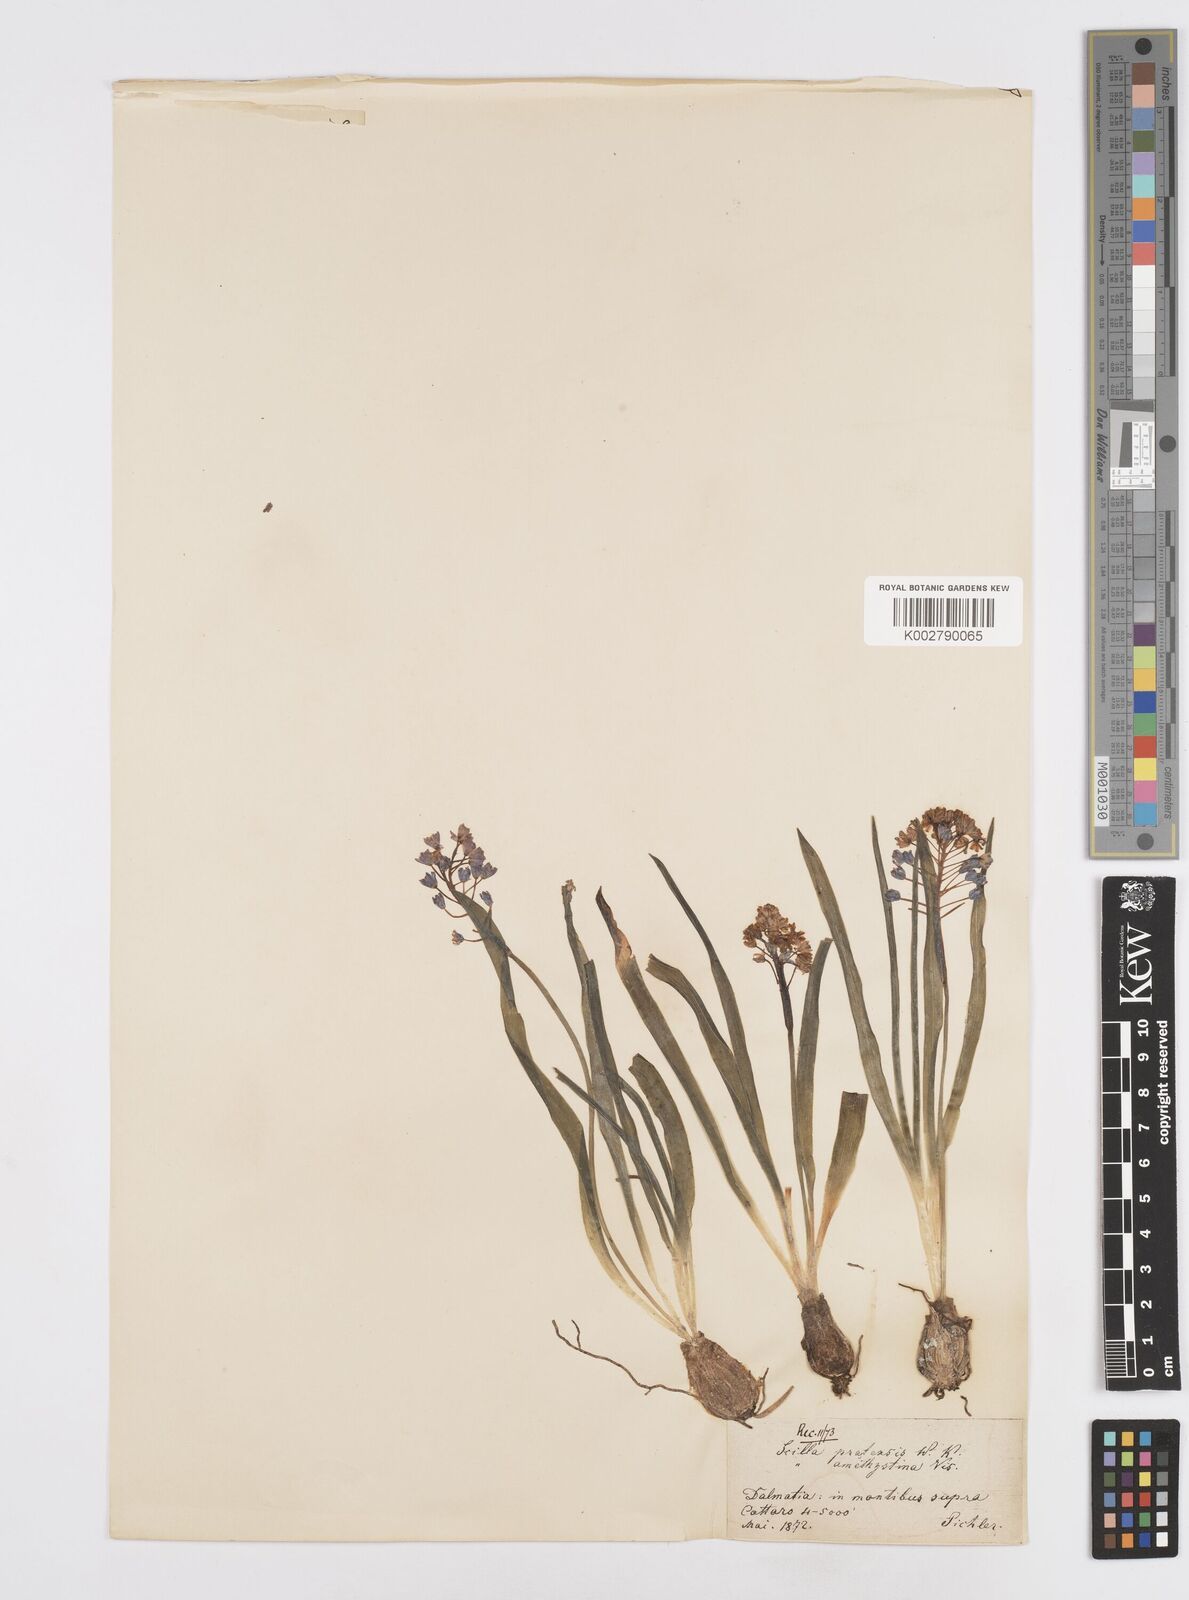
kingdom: Plantae
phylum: Tracheophyta
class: Liliopsida
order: Asparagales
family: Asparagaceae
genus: Scilla
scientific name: Scilla litardierei
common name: Amethyst meadow squill
